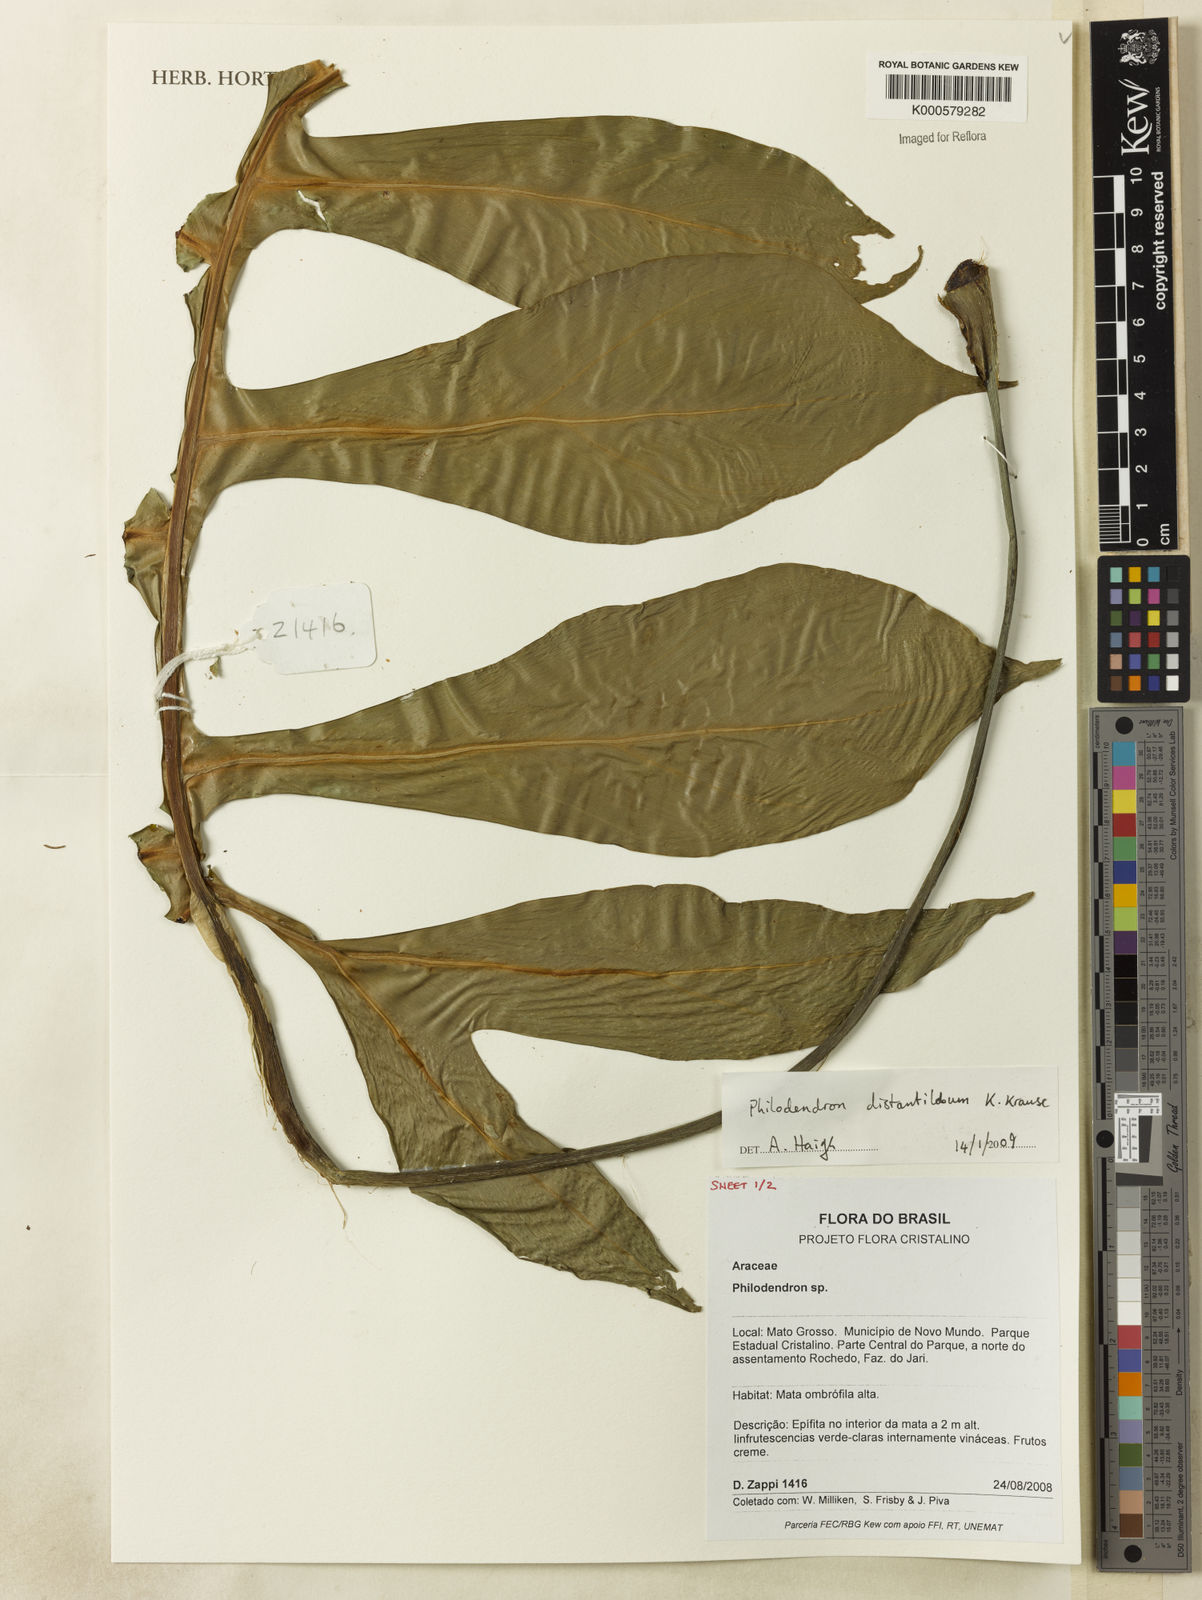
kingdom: Plantae
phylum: Tracheophyta
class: Liliopsida
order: Alismatales
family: Araceae
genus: Philodendron
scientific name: Philodendron
